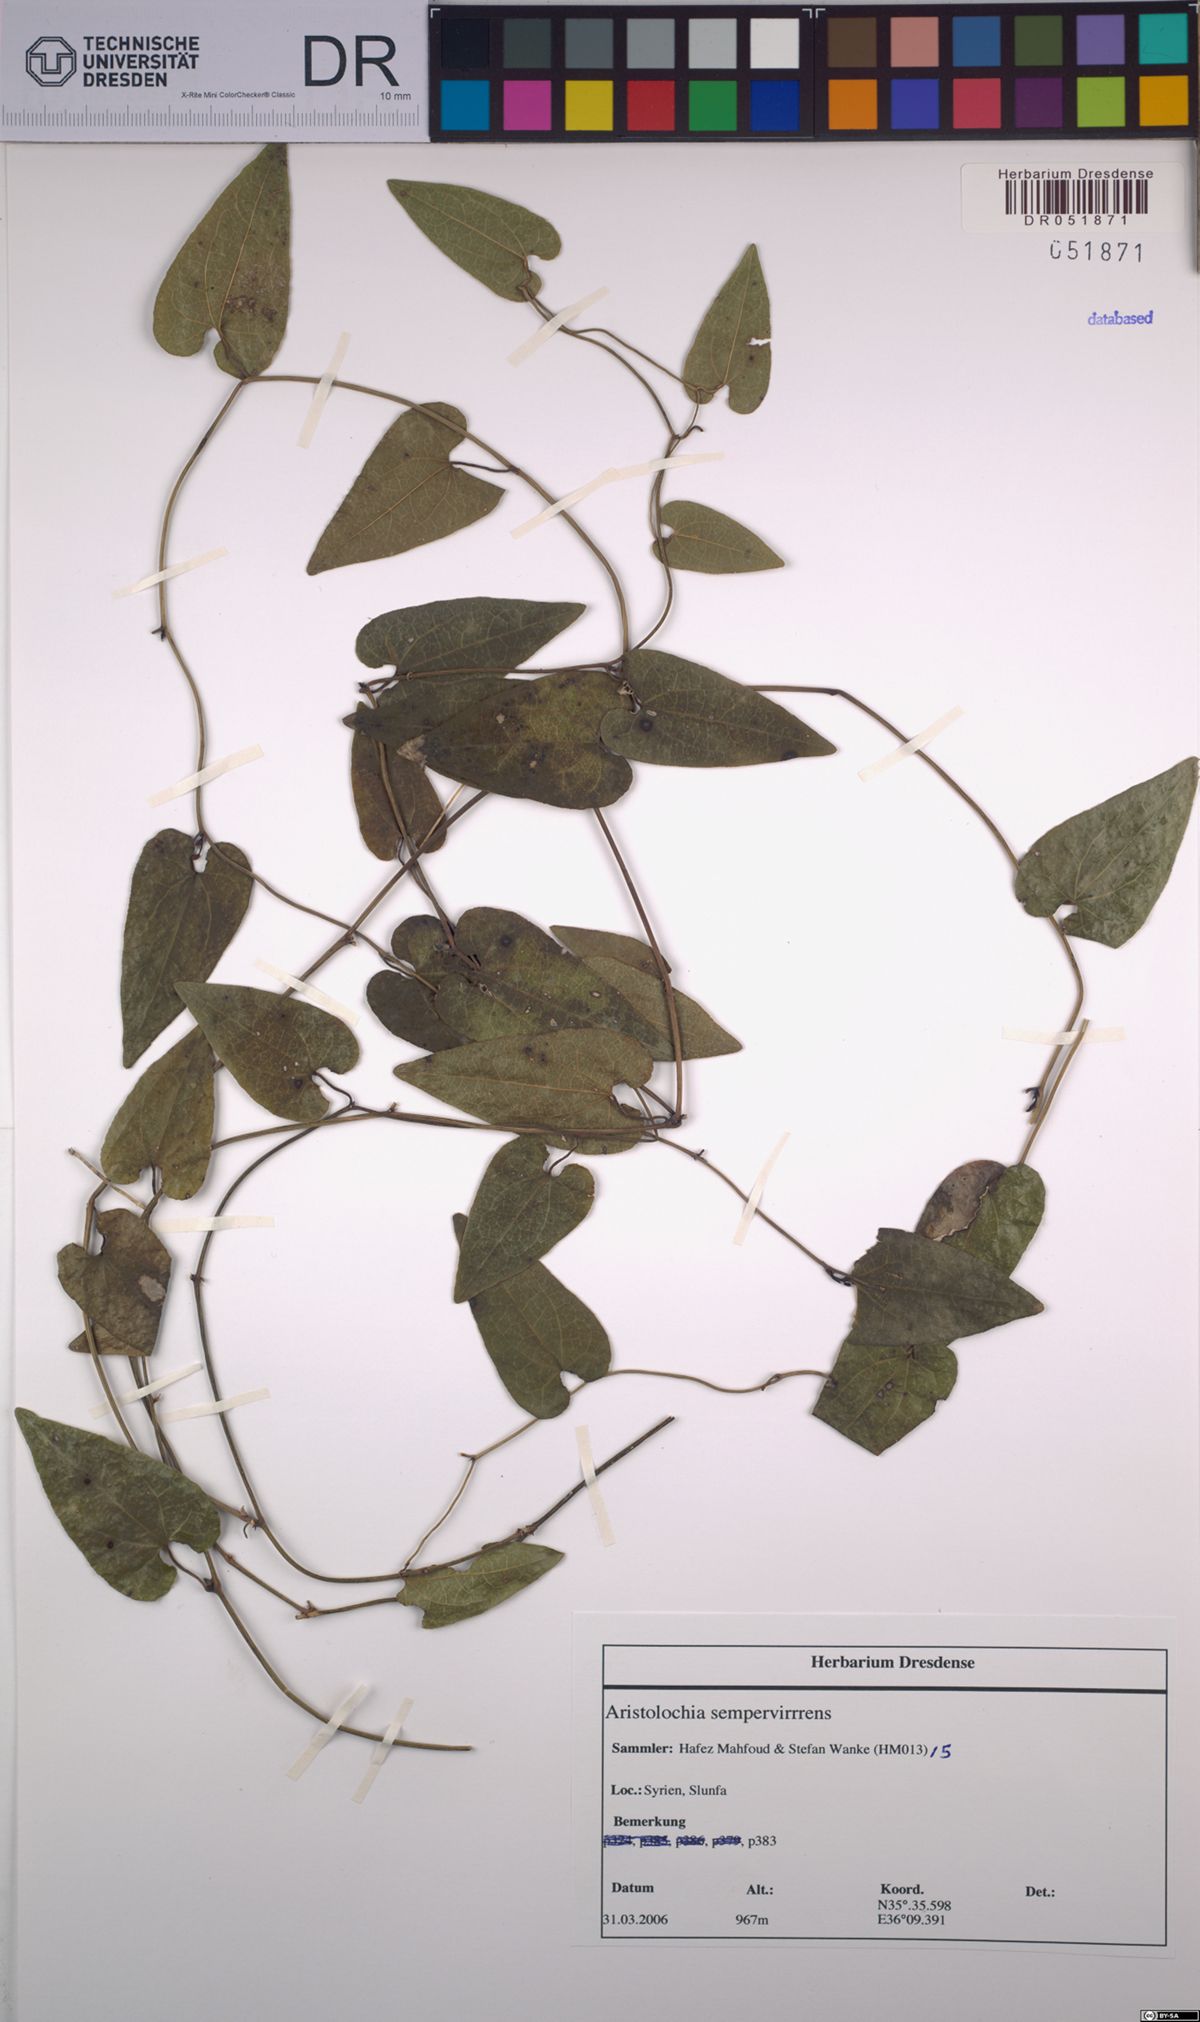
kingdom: Plantae
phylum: Tracheophyta
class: Magnoliopsida
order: Piperales
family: Aristolochiaceae
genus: Aristolochia
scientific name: Aristolochia sempervirens
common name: Long birthwort
